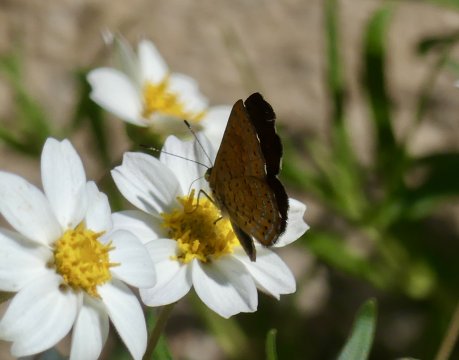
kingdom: Animalia
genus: Calephelis
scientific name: Calephelis nemesis
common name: Fatal Metalmark
